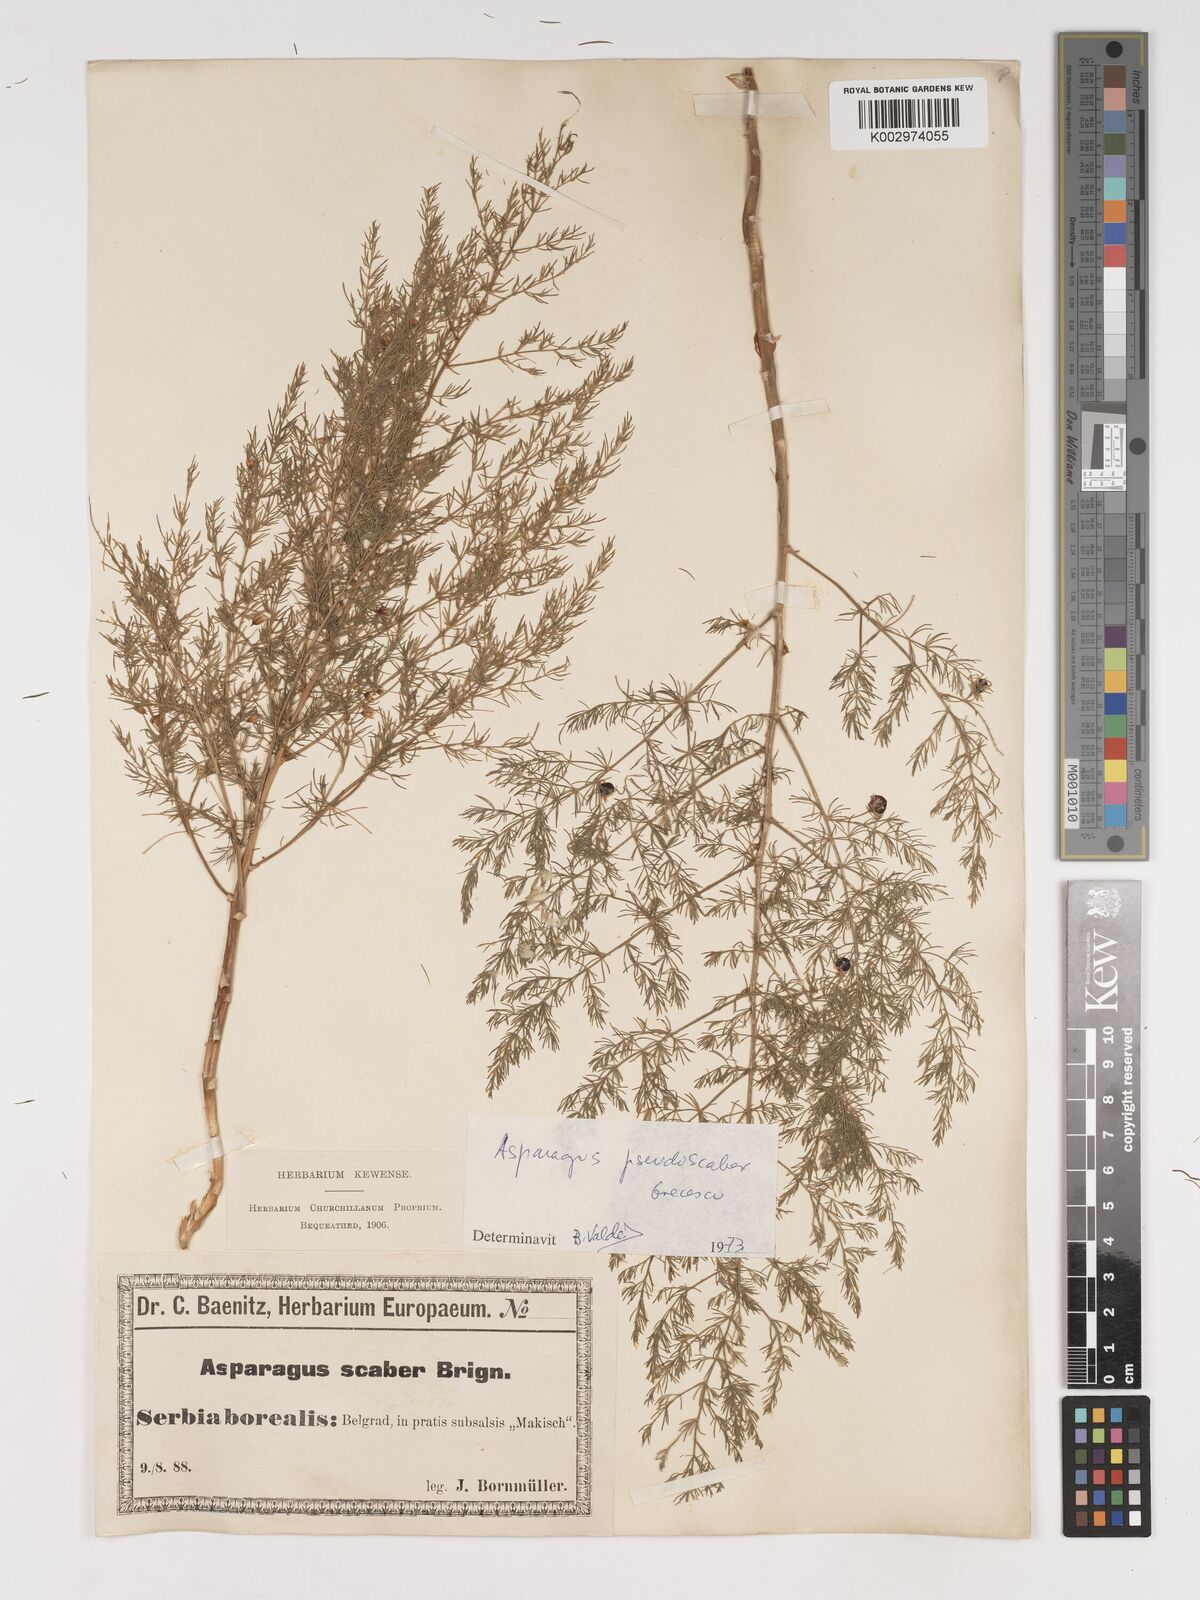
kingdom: Plantae
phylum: Tracheophyta
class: Liliopsida
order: Asparagales
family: Asparagaceae
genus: Asparagus
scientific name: Asparagus maritimus
